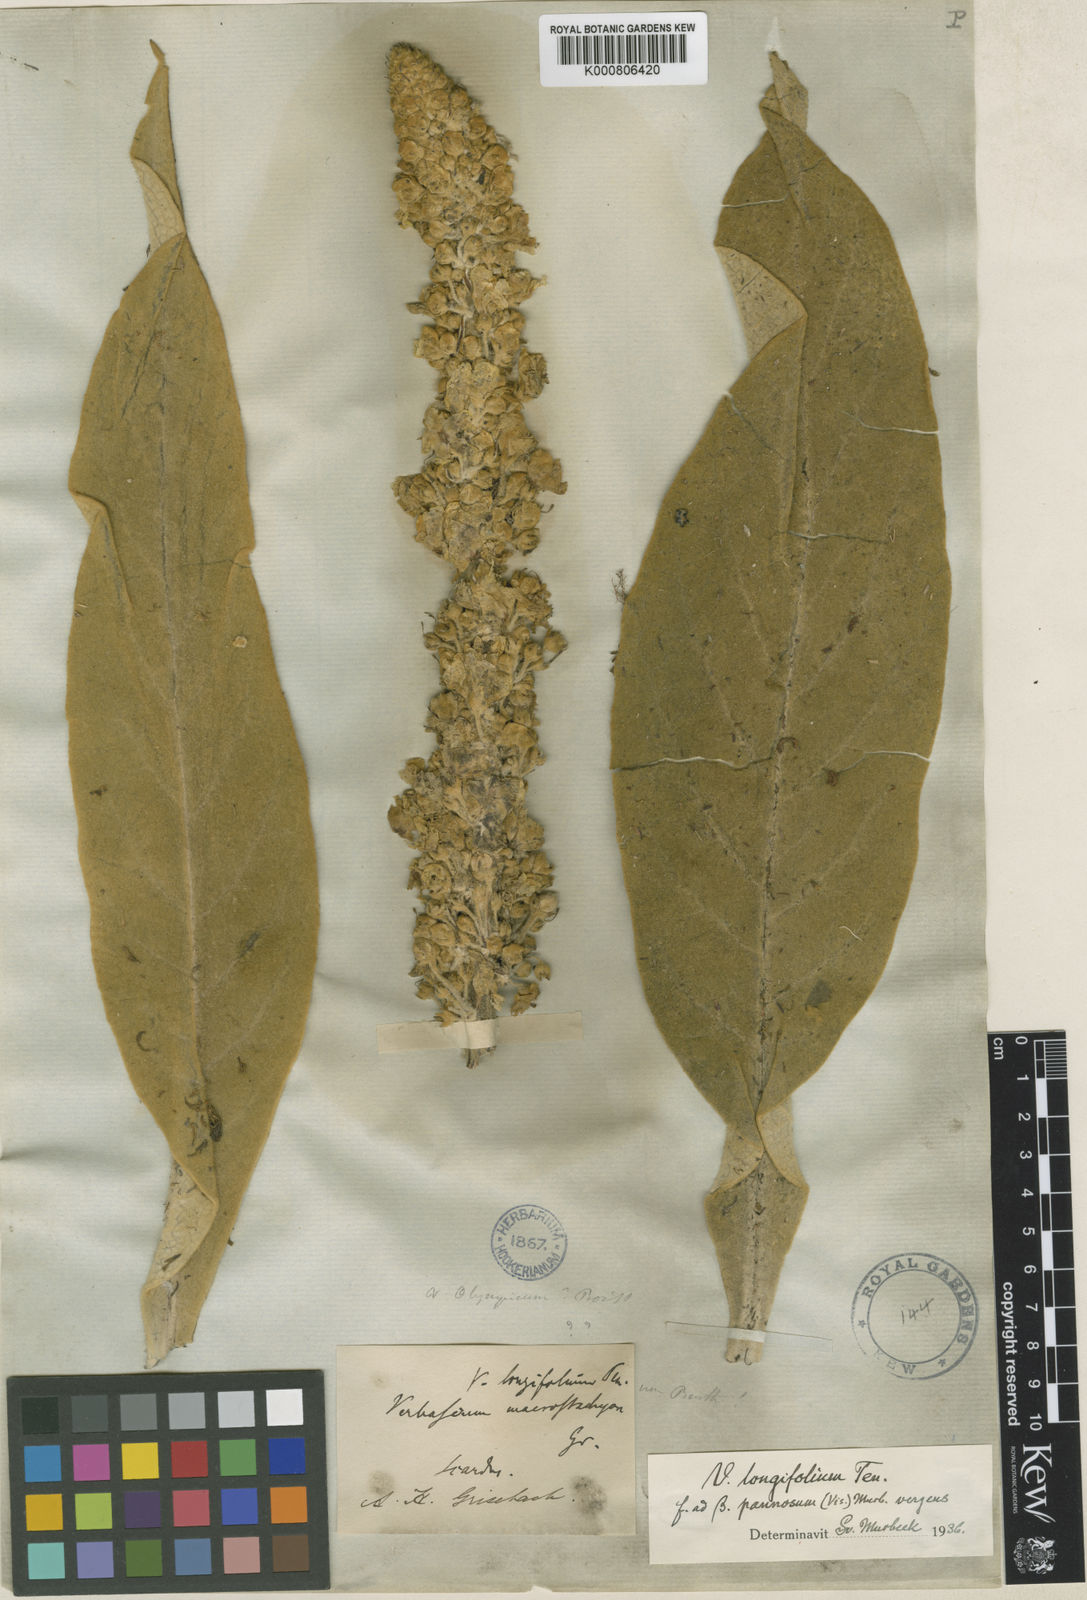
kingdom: Plantae
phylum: Tracheophyta
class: Magnoliopsida
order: Lamiales
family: Scrophulariaceae
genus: Verbascum
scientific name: Verbascum longifolium
